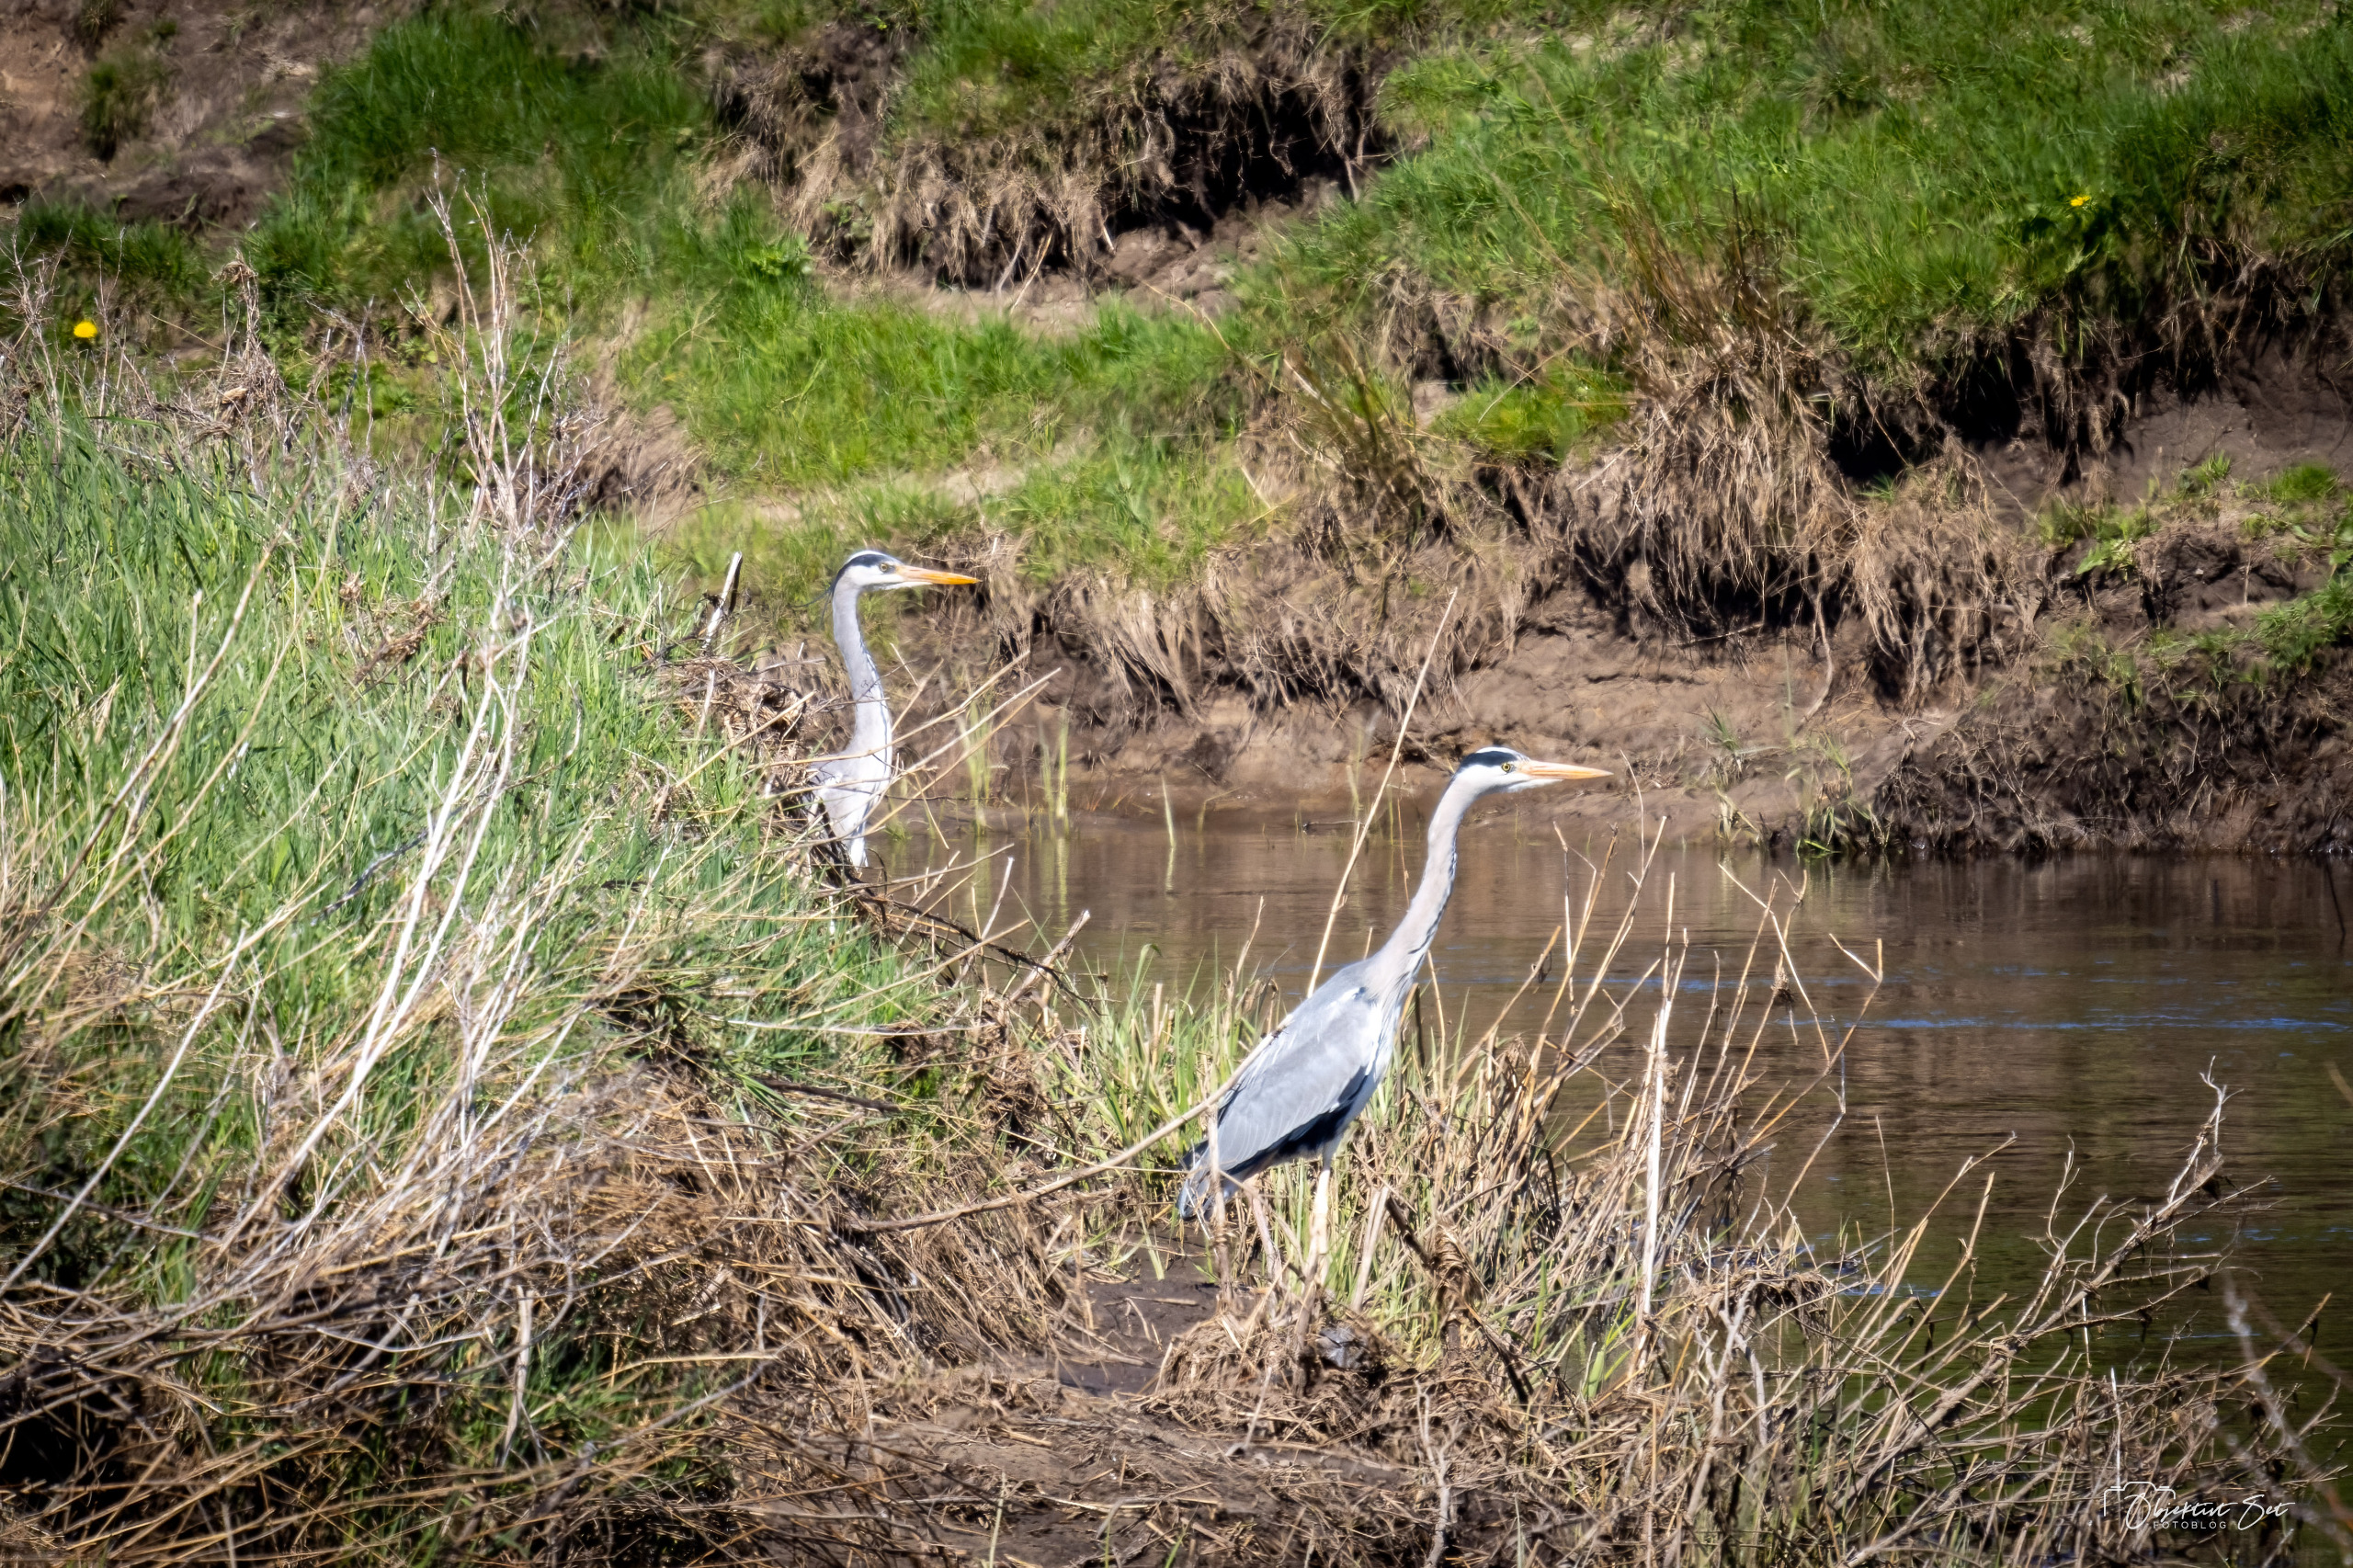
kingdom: Animalia
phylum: Chordata
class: Aves
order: Pelecaniformes
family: Ardeidae
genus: Ardea
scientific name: Ardea cinerea
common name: Fiskehejre
